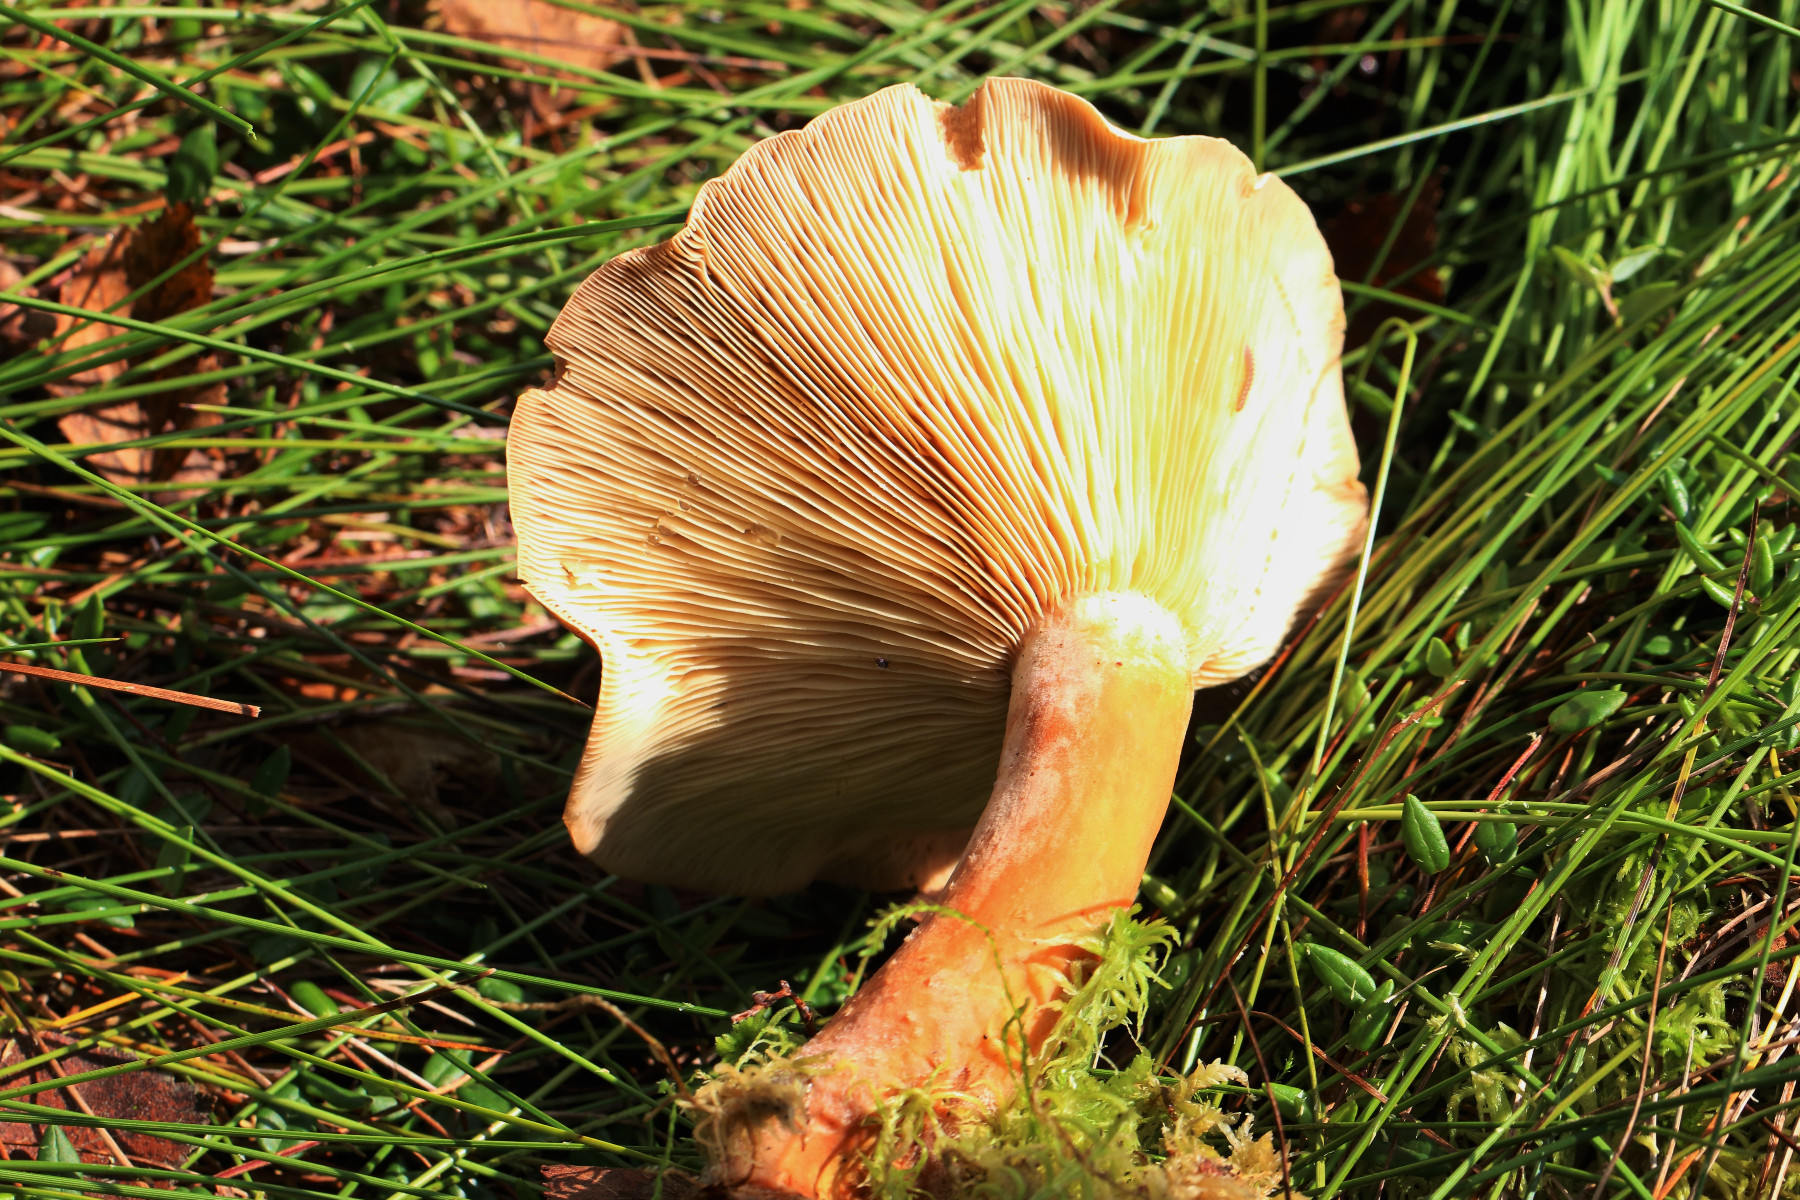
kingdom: Fungi
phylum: Basidiomycota
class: Agaricomycetes
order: Russulales
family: Russulaceae
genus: Lactarius
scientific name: Lactarius helvus
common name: mose-mælkehat
